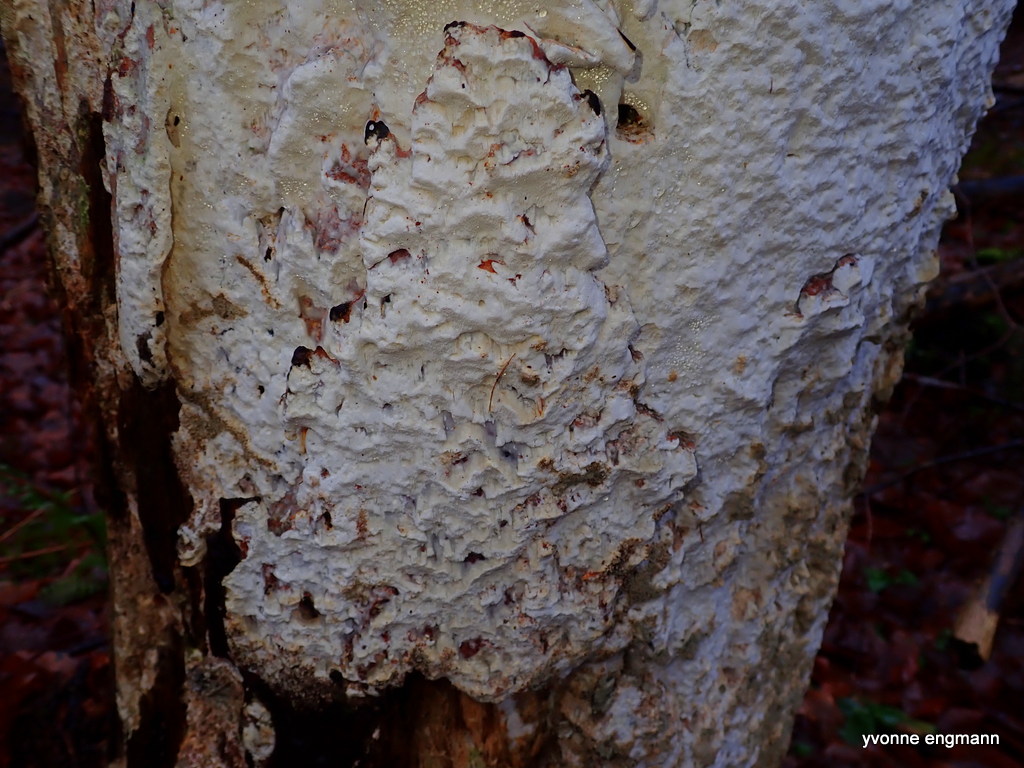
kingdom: Fungi
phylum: Basidiomycota
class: Agaricomycetes
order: Polyporales
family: Fomitopsidaceae
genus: Daedalea
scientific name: Daedalea xantha
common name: gul sejporesvamp
